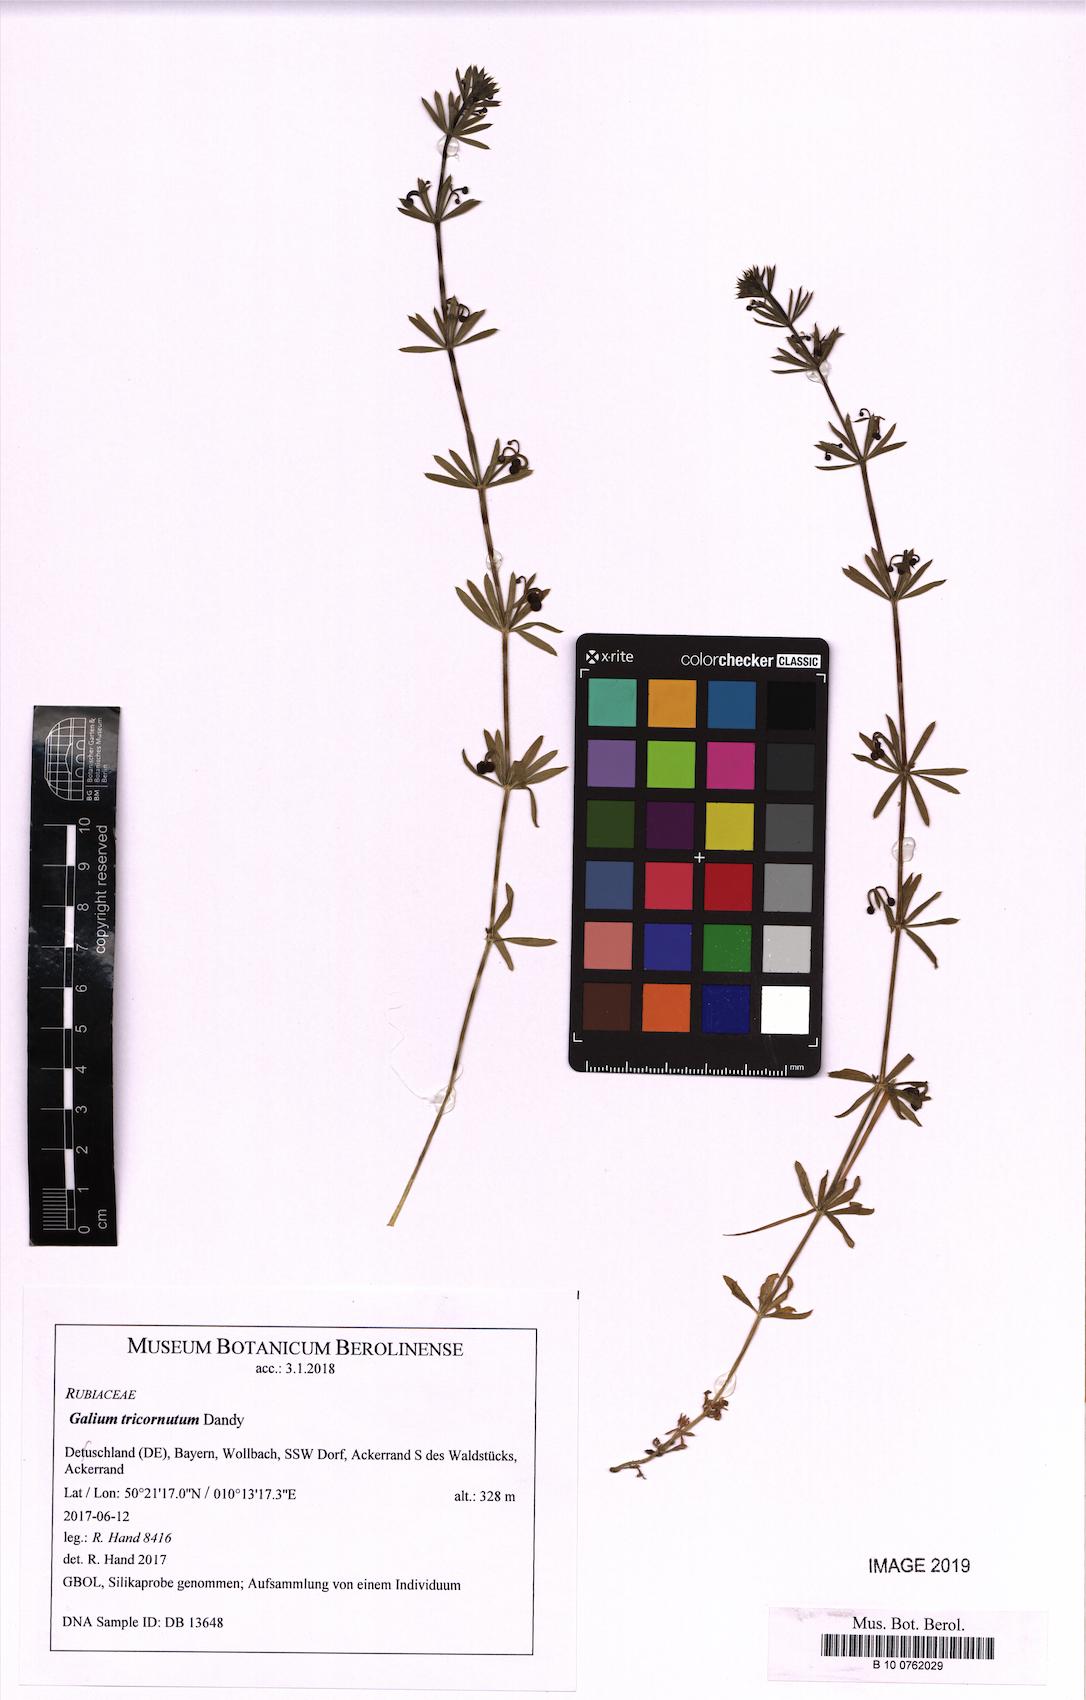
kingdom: Plantae
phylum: Tracheophyta
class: Magnoliopsida
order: Gentianales
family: Rubiaceae
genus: Galium
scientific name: Galium tricornutum
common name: Corn cleavers
